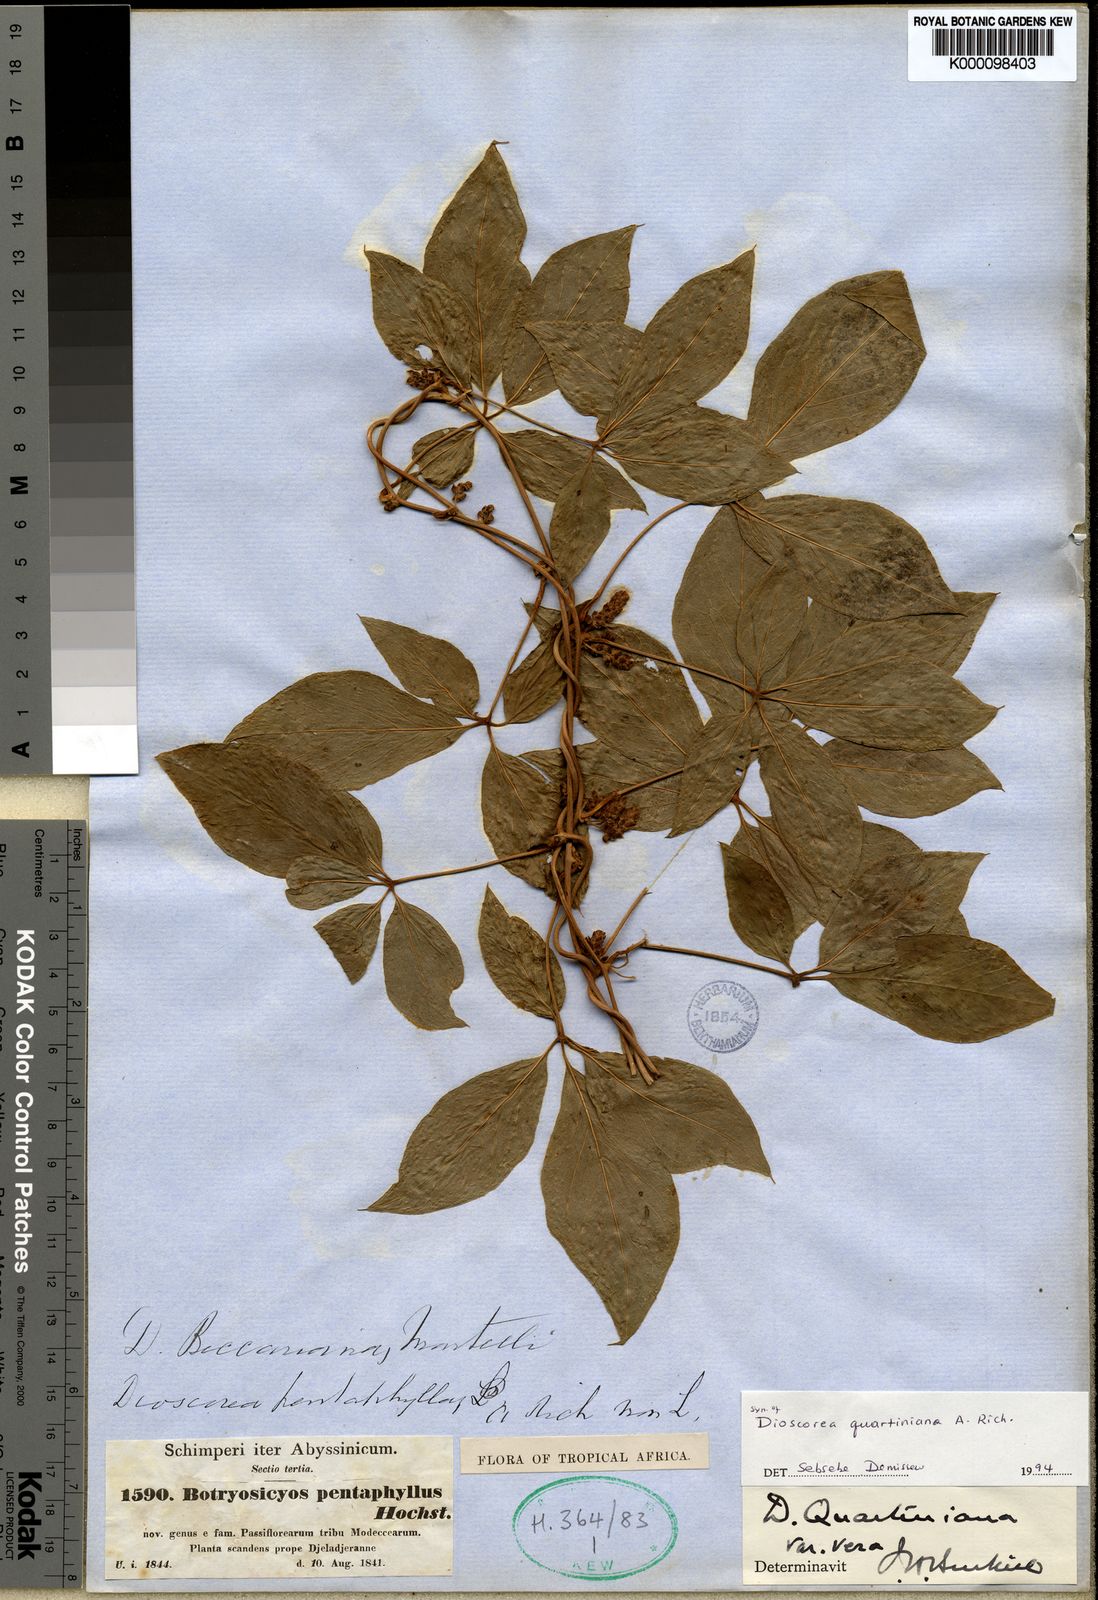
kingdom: Plantae
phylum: Tracheophyta
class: Liliopsida
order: Dioscoreales
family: Dioscoreaceae
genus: Dioscorea
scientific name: Dioscorea quartiniana
